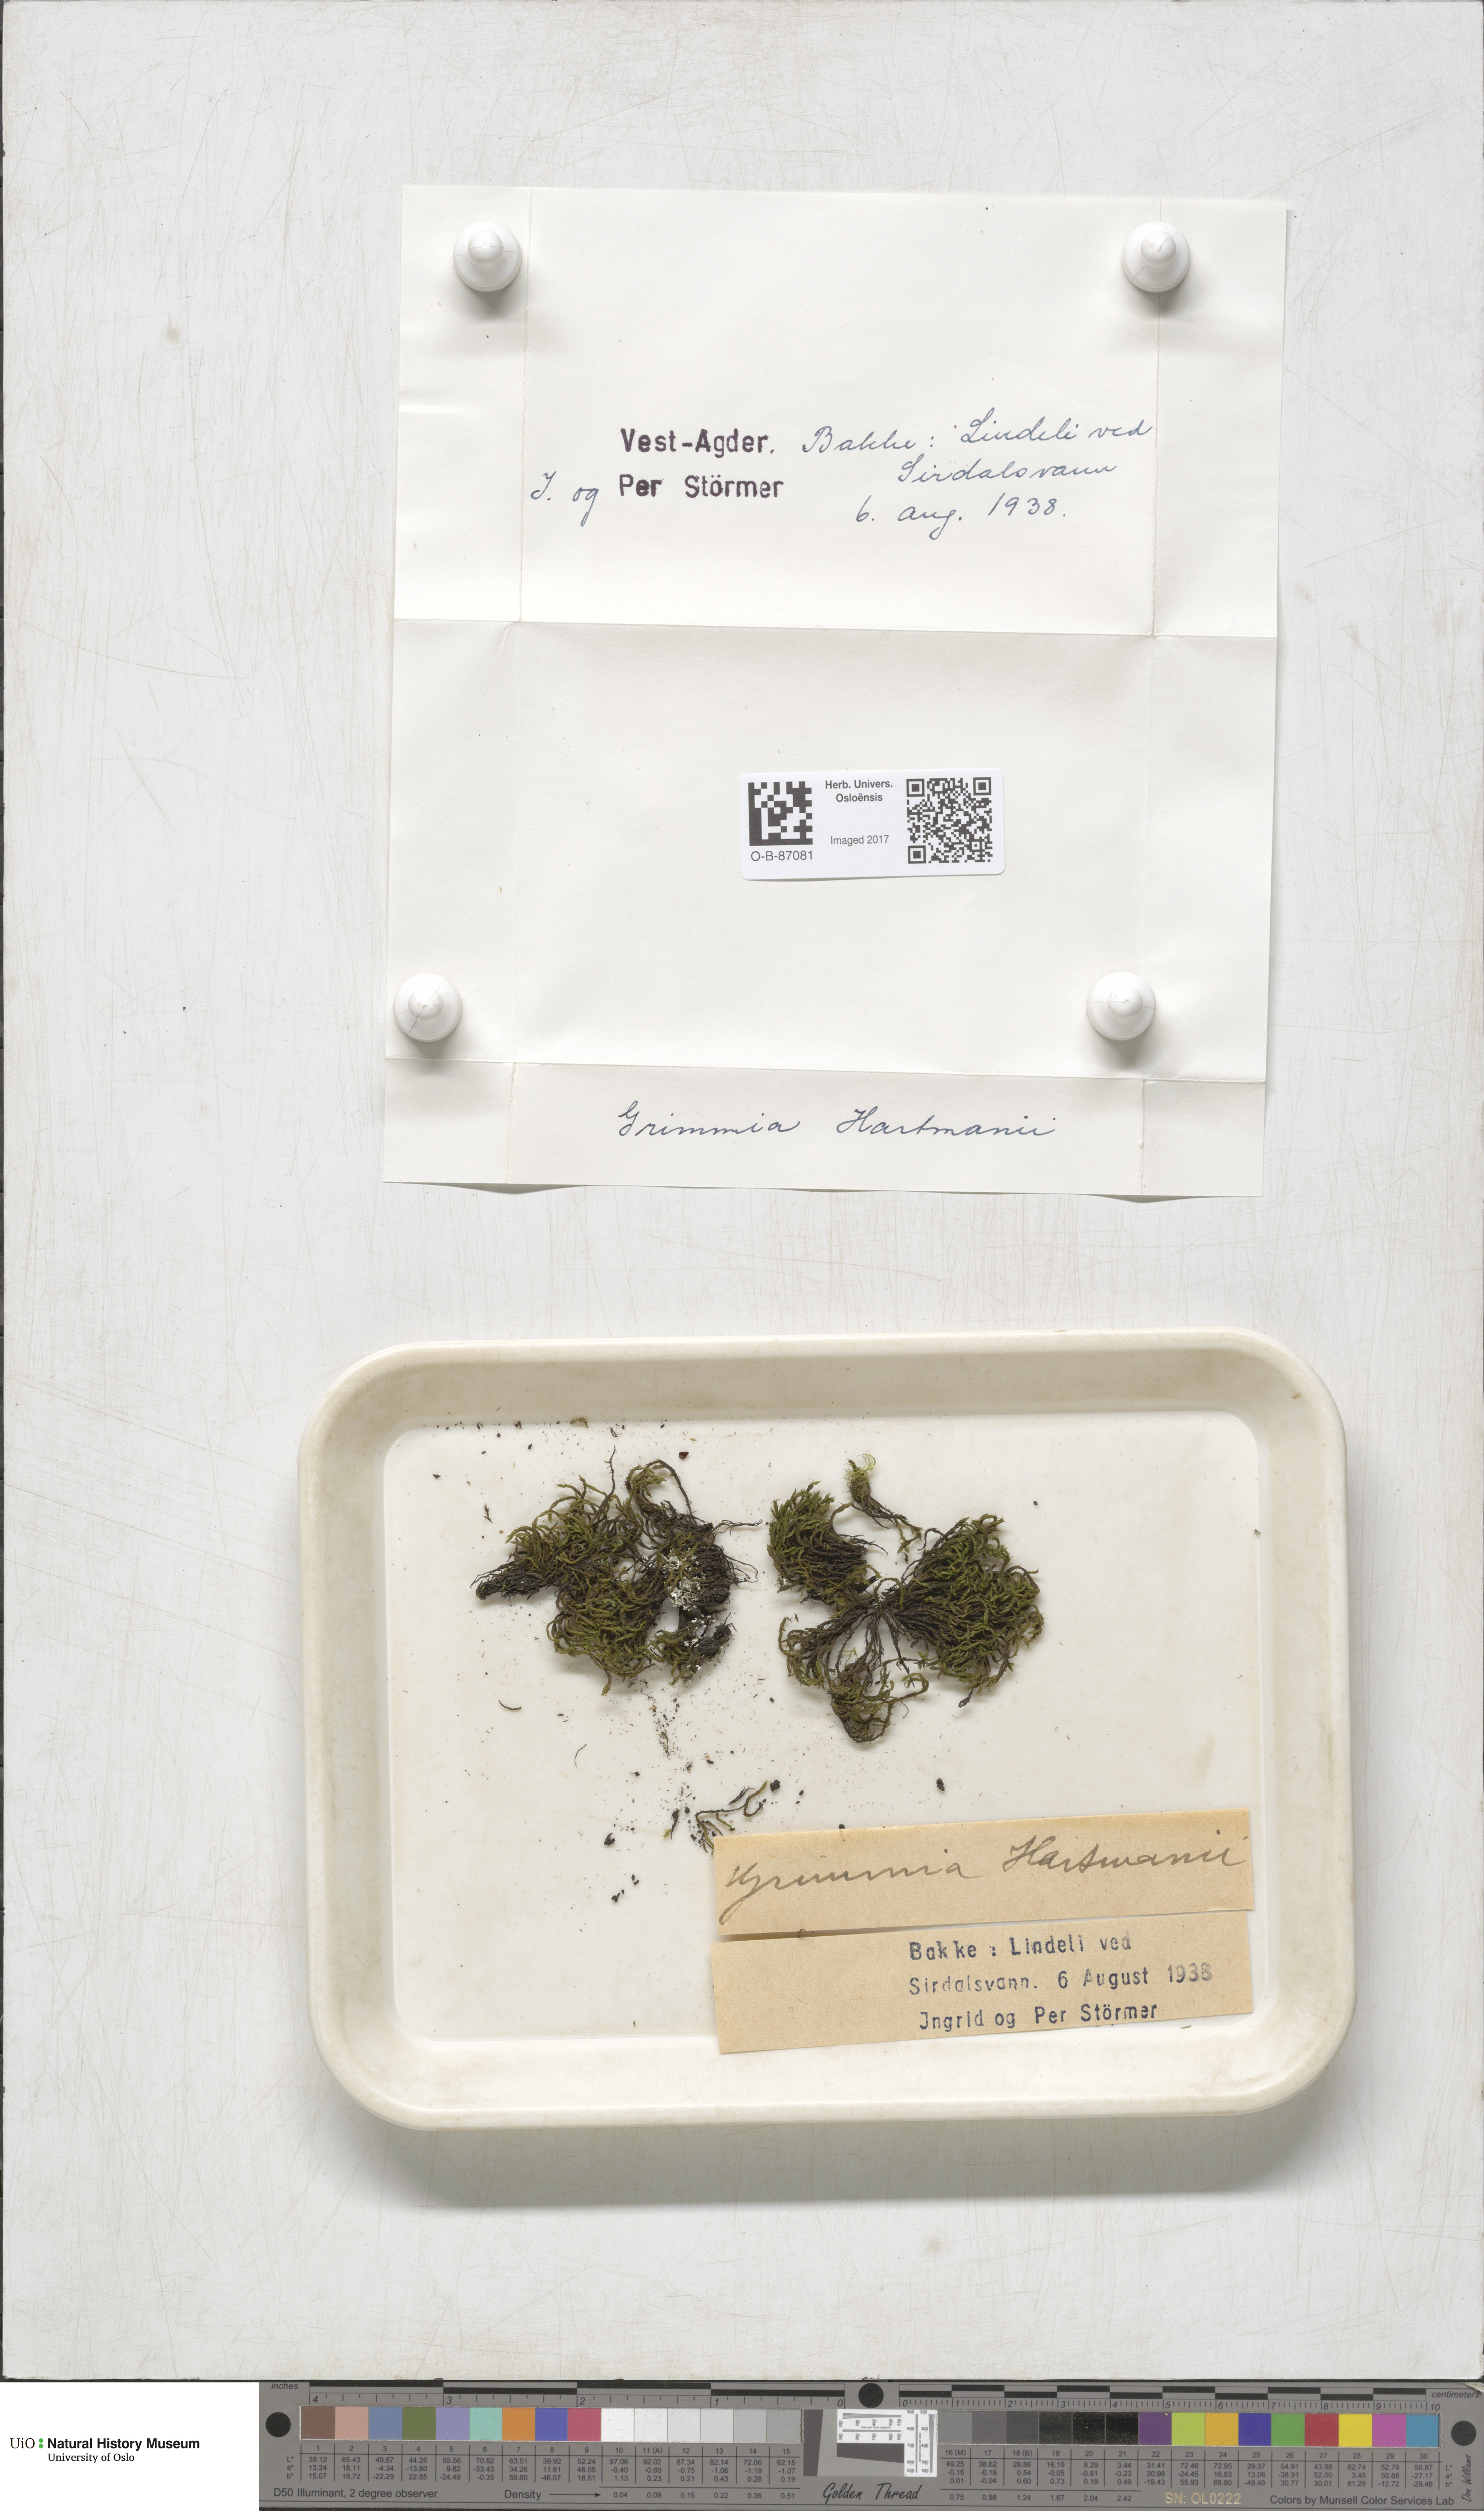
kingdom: Plantae
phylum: Bryophyta
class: Bryopsida
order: Grimmiales
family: Grimmiaceae
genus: Grimmia
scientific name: Grimmia hartmanii
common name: Hartman's grimmia
